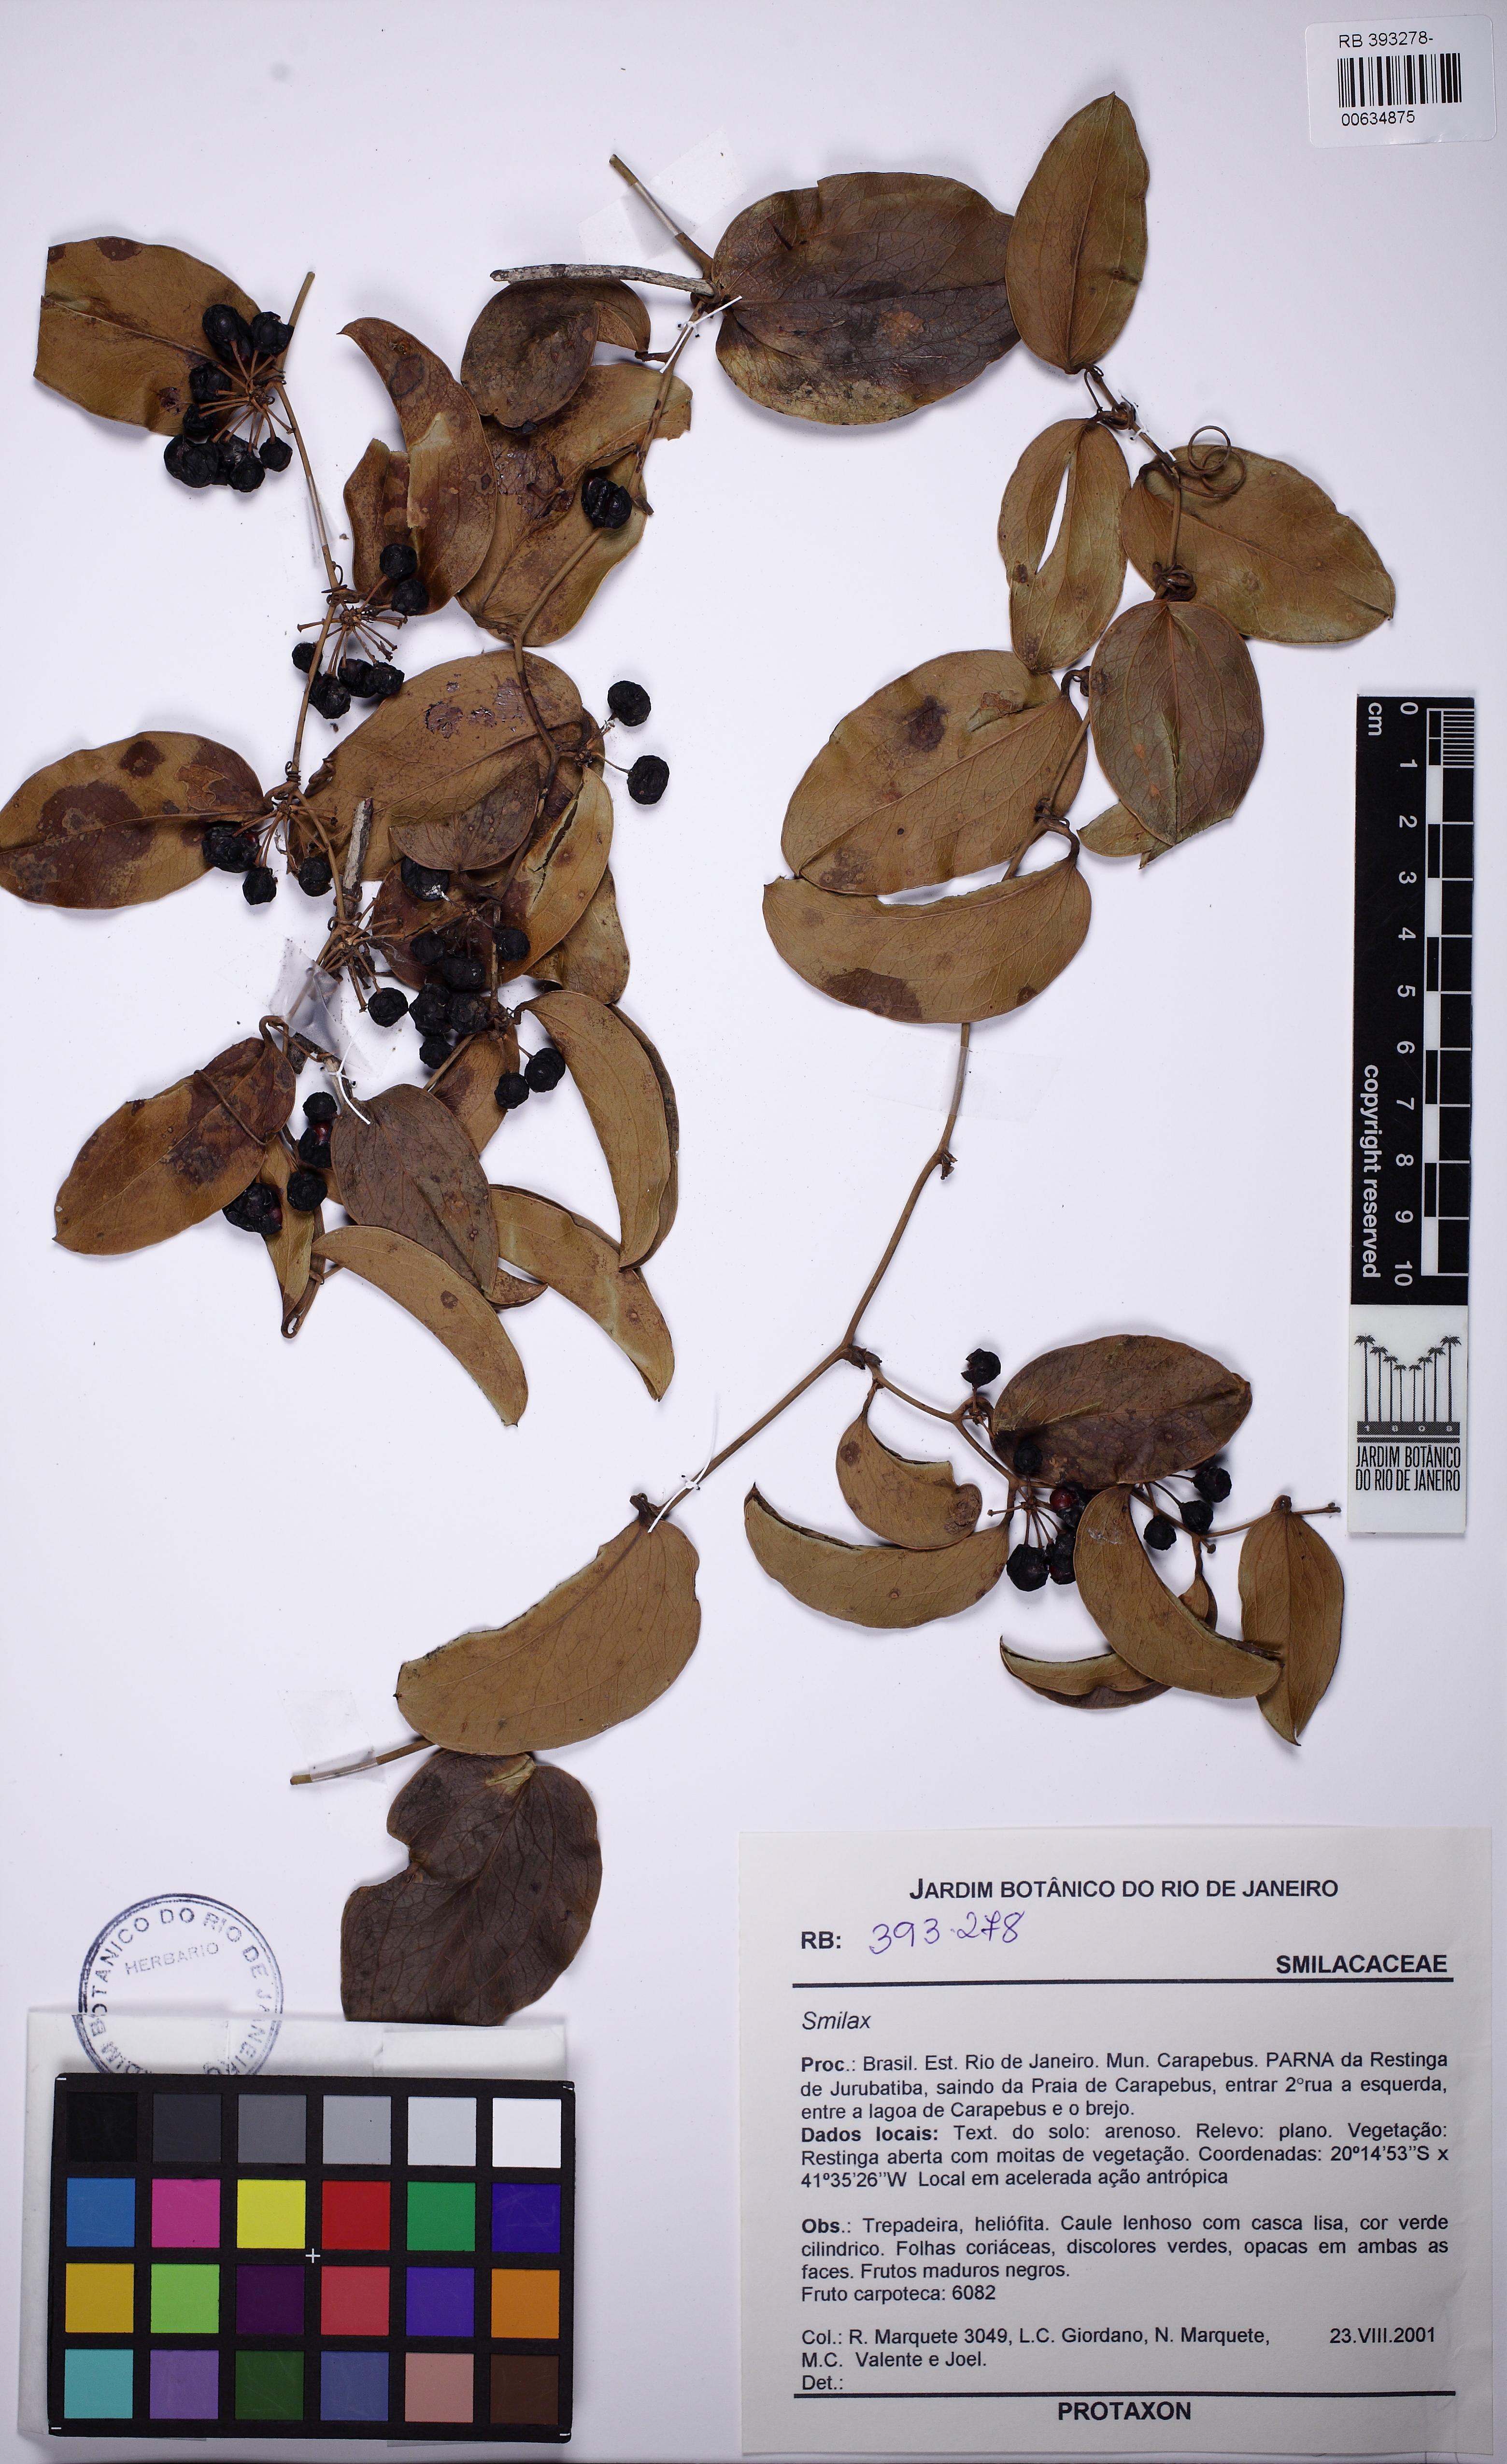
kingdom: Plantae
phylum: Tracheophyta
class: Liliopsida
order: Liliales
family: Smilacaceae
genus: Smilax
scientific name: Smilax
